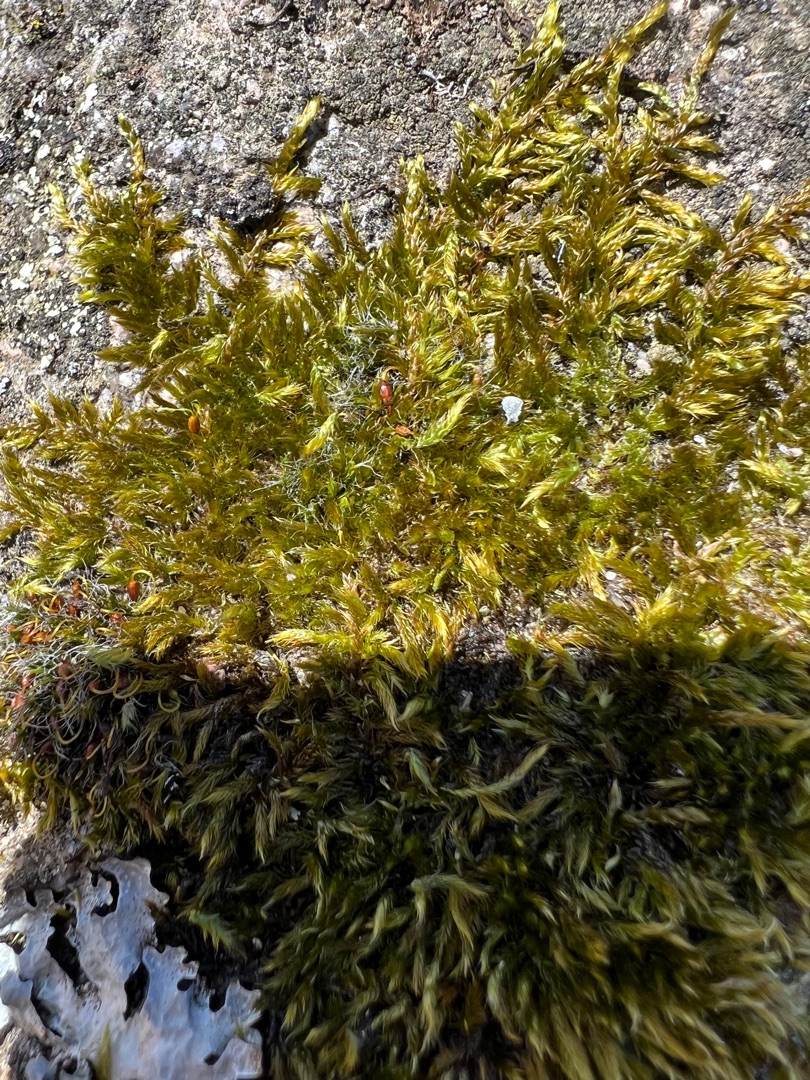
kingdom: Plantae
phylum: Bryophyta
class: Bryopsida
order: Hypnales
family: Hypnaceae
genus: Hypnum
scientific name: Hypnum cupressiforme
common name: Almindelig cypresmos
